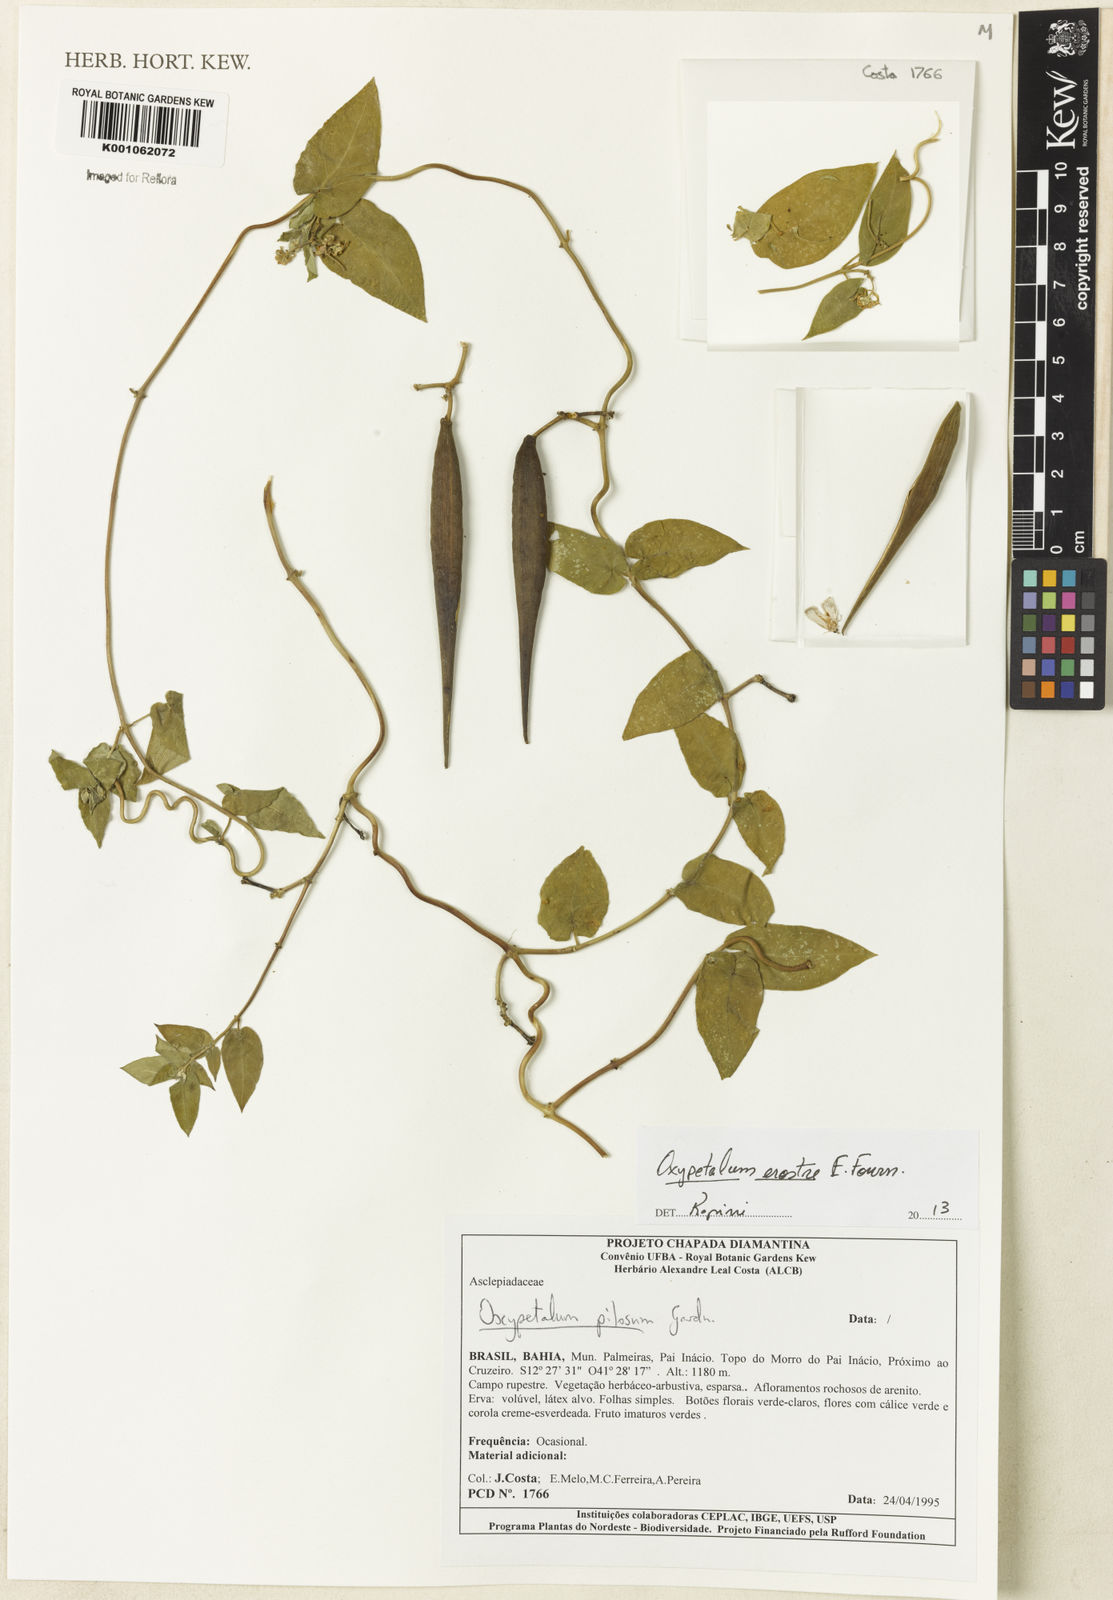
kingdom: Plantae
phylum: Tracheophyta
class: Magnoliopsida
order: Gentianales
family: Apocynaceae
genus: Oxypetalum
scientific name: Oxypetalum erostre
